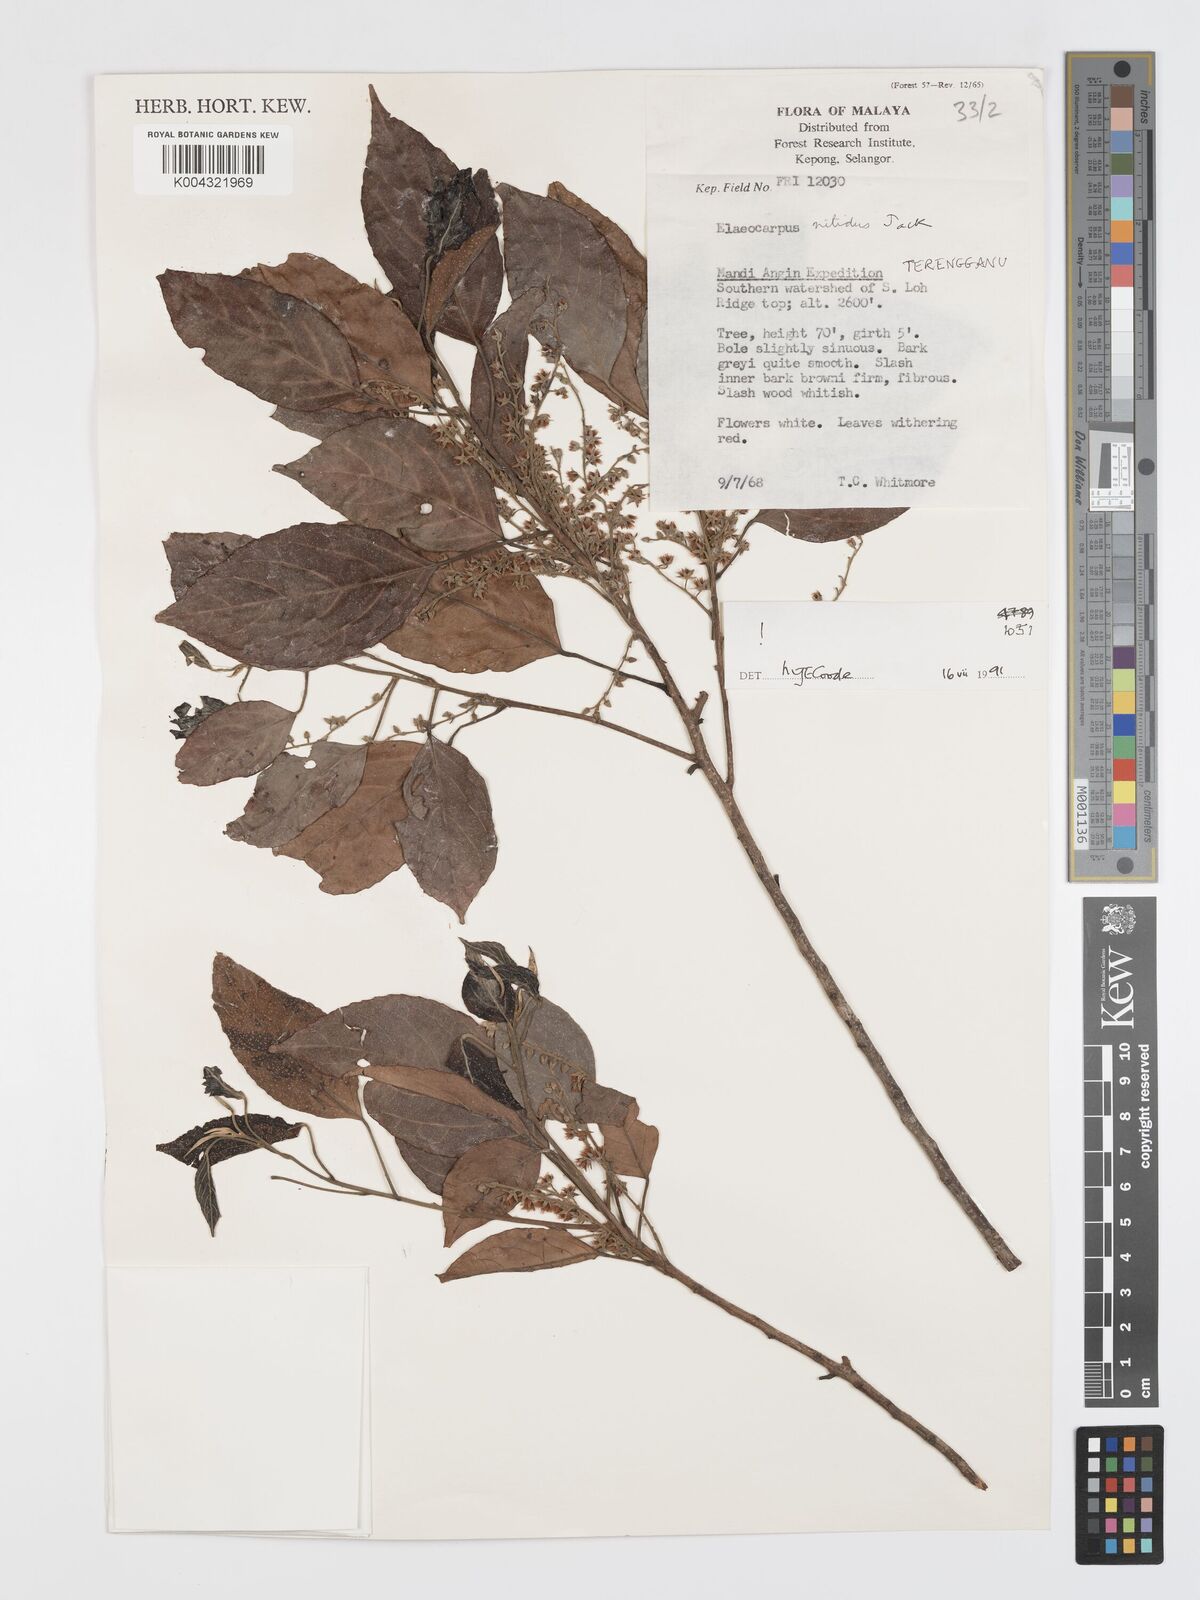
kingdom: Plantae
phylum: Tracheophyta
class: Magnoliopsida
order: Oxalidales
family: Elaeocarpaceae
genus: Elaeocarpus
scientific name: Elaeocarpus nitidus
